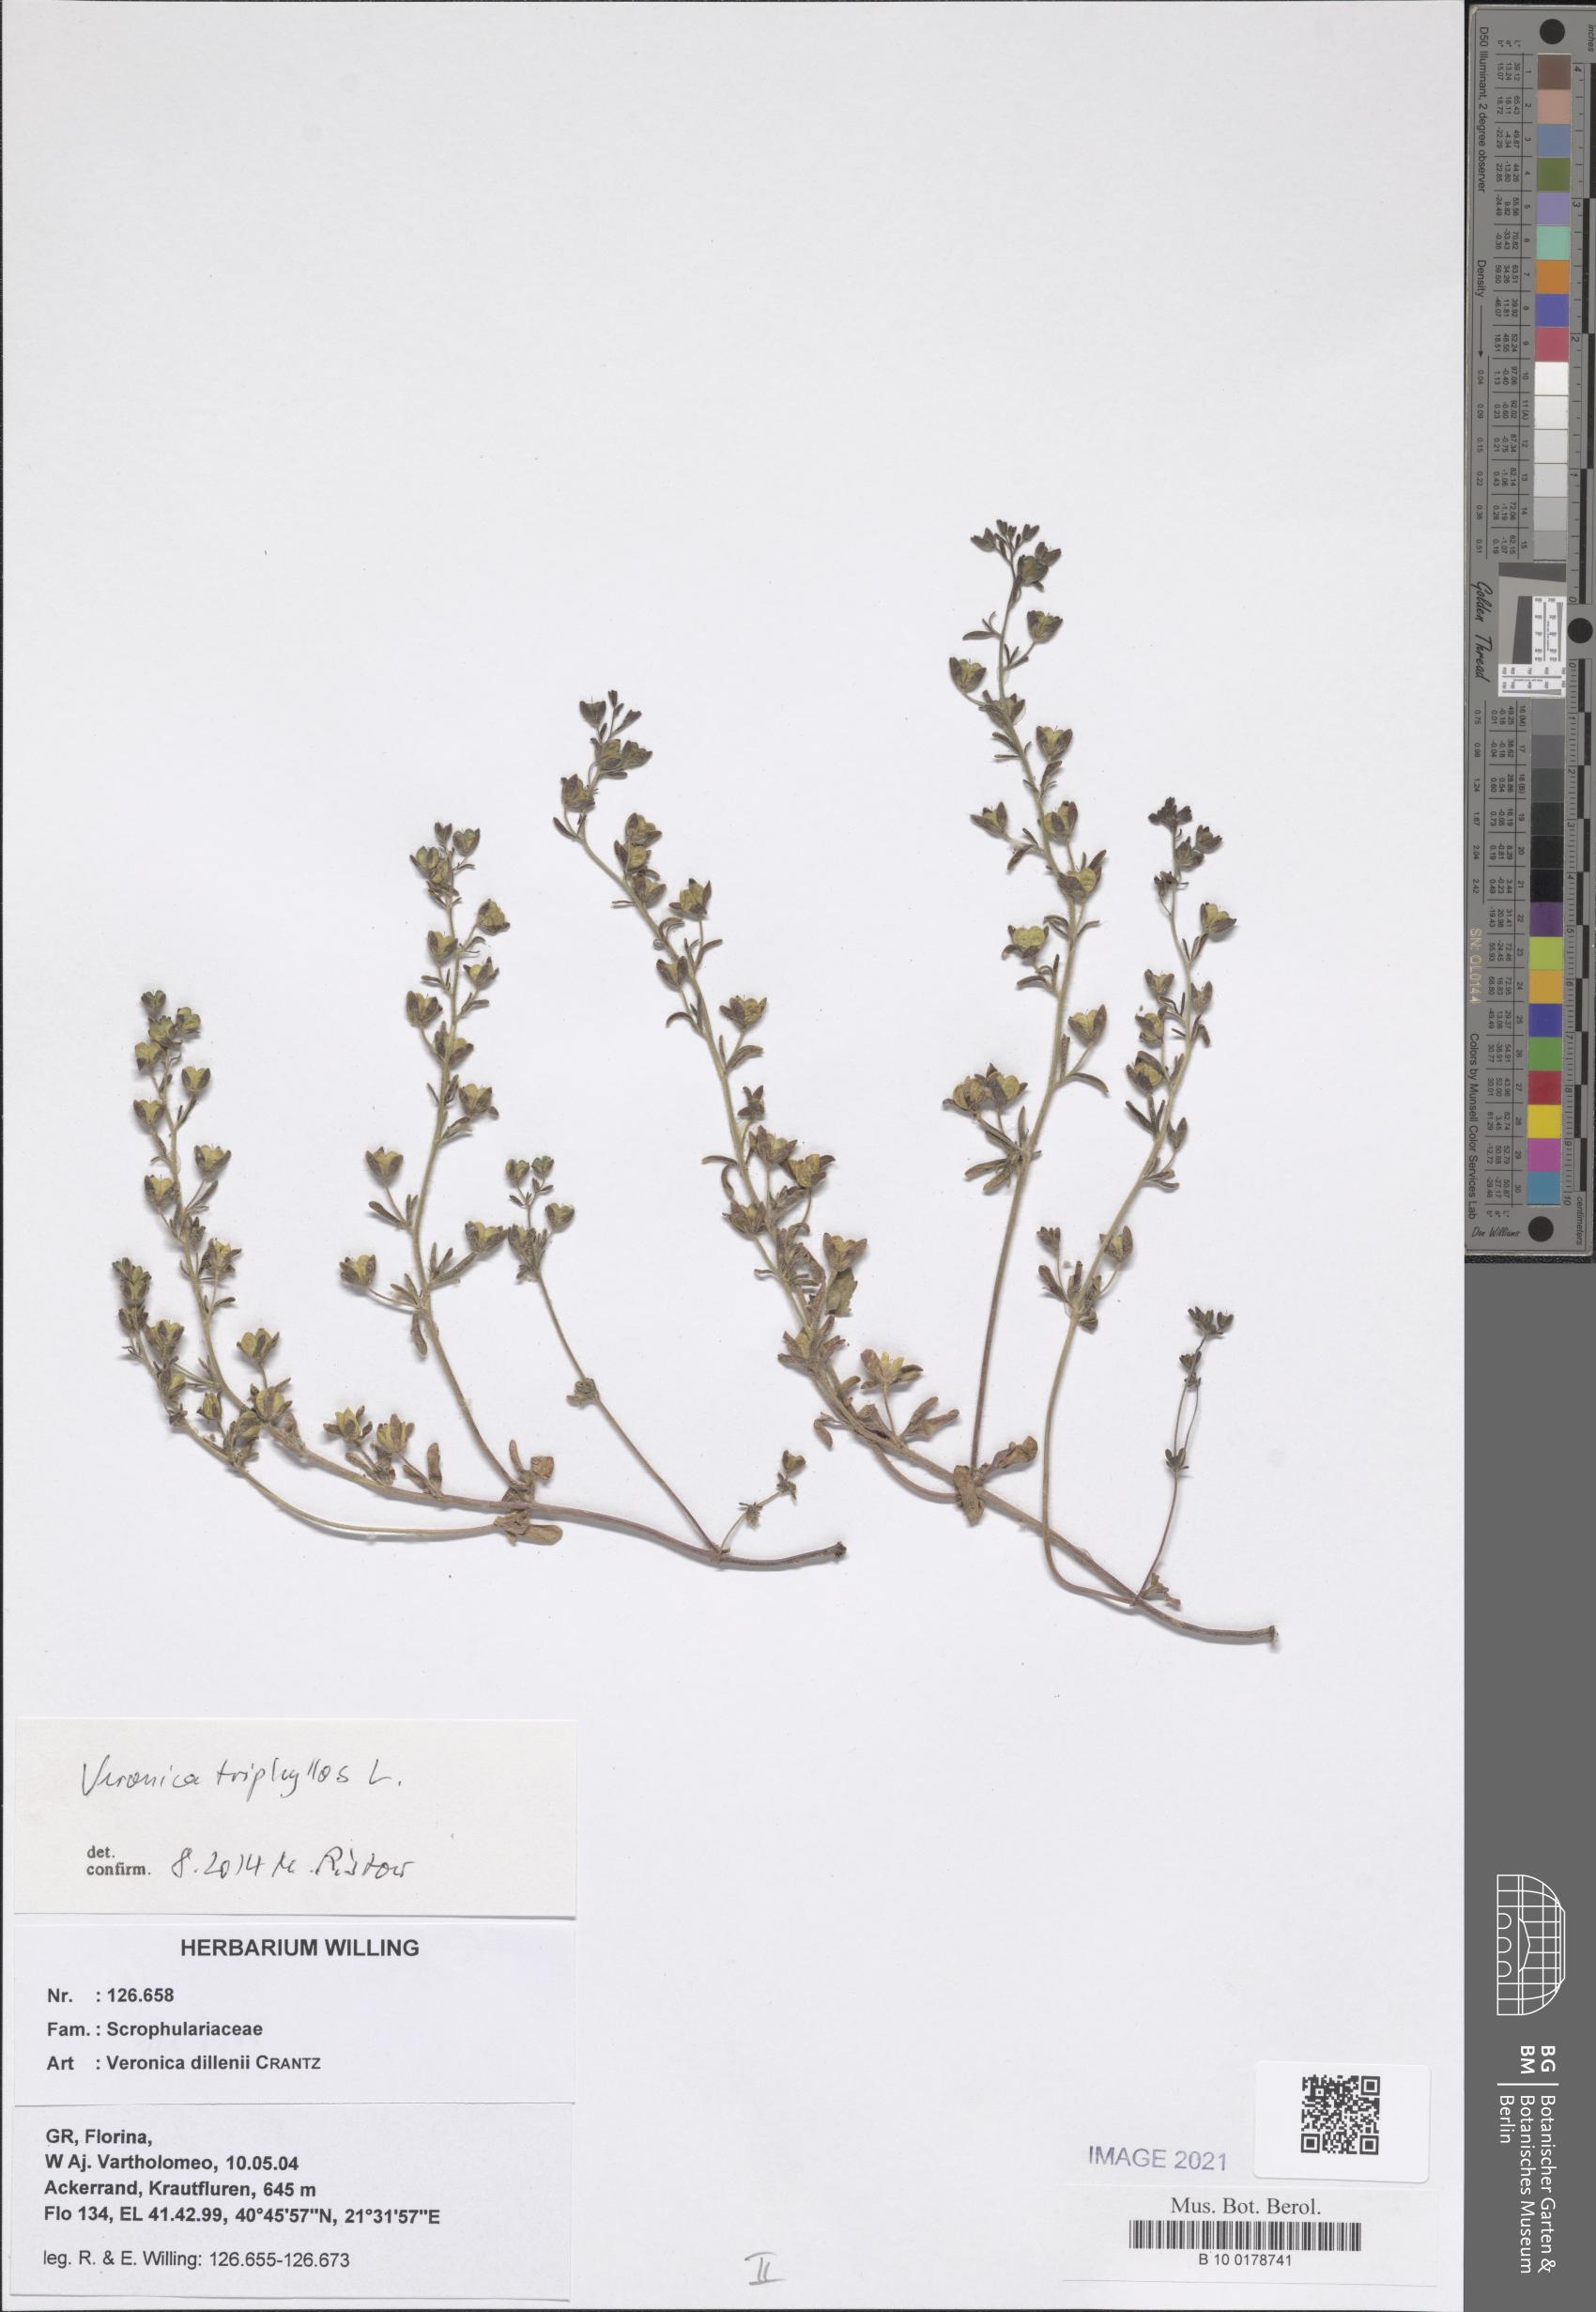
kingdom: Plantae
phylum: Tracheophyta
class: Magnoliopsida
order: Lamiales
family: Plantaginaceae
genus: Veronica
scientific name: Veronica triphyllos
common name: Fingered speedwell
